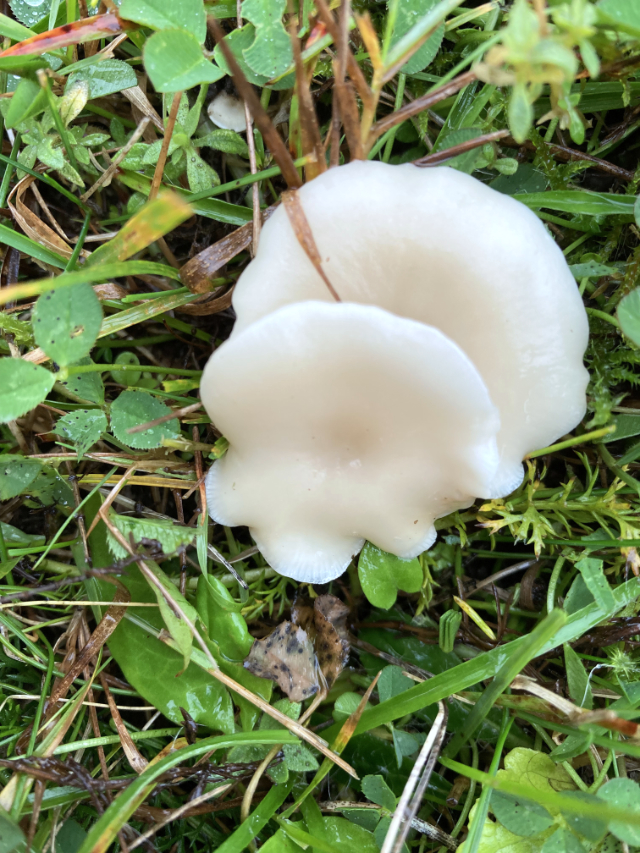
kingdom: Fungi
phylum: Basidiomycota
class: Agaricomycetes
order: Agaricales
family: Tricholomataceae
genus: Clitocybe
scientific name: Clitocybe
